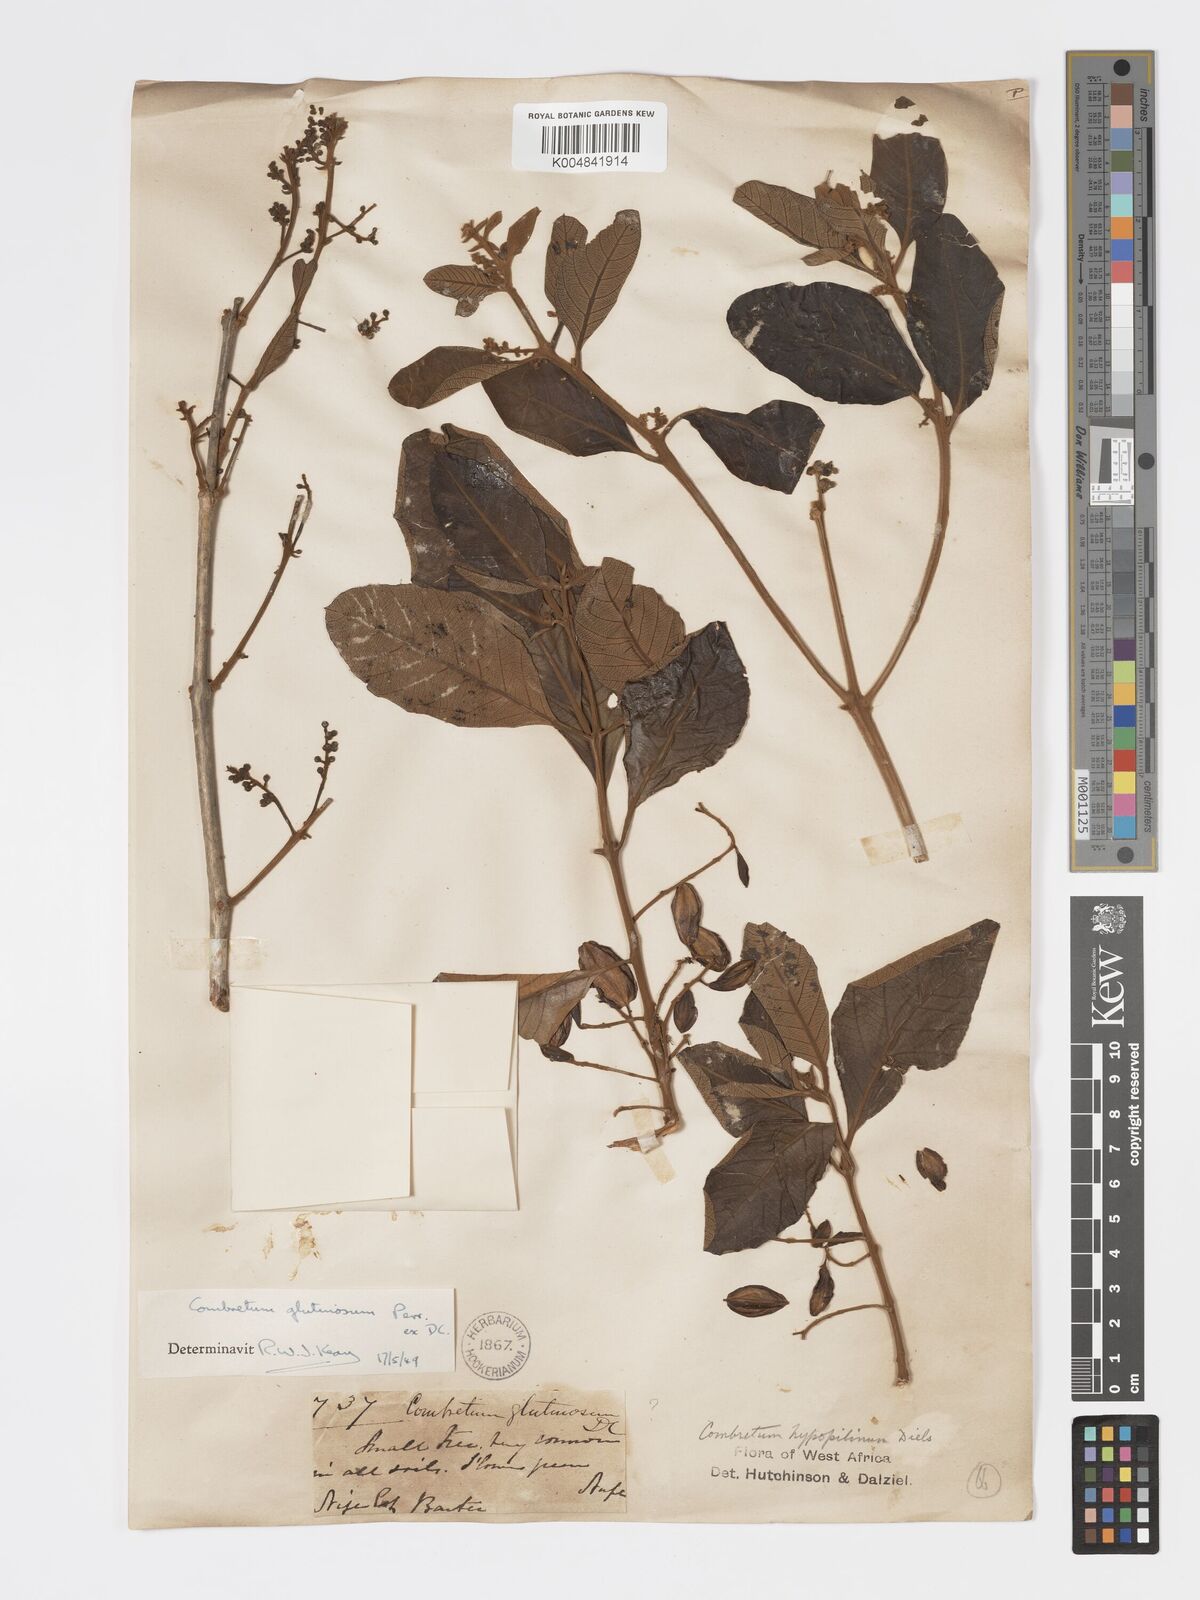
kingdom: Plantae
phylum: Tracheophyta
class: Magnoliopsida
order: Myrtales
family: Combretaceae
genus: Combretum
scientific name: Combretum
